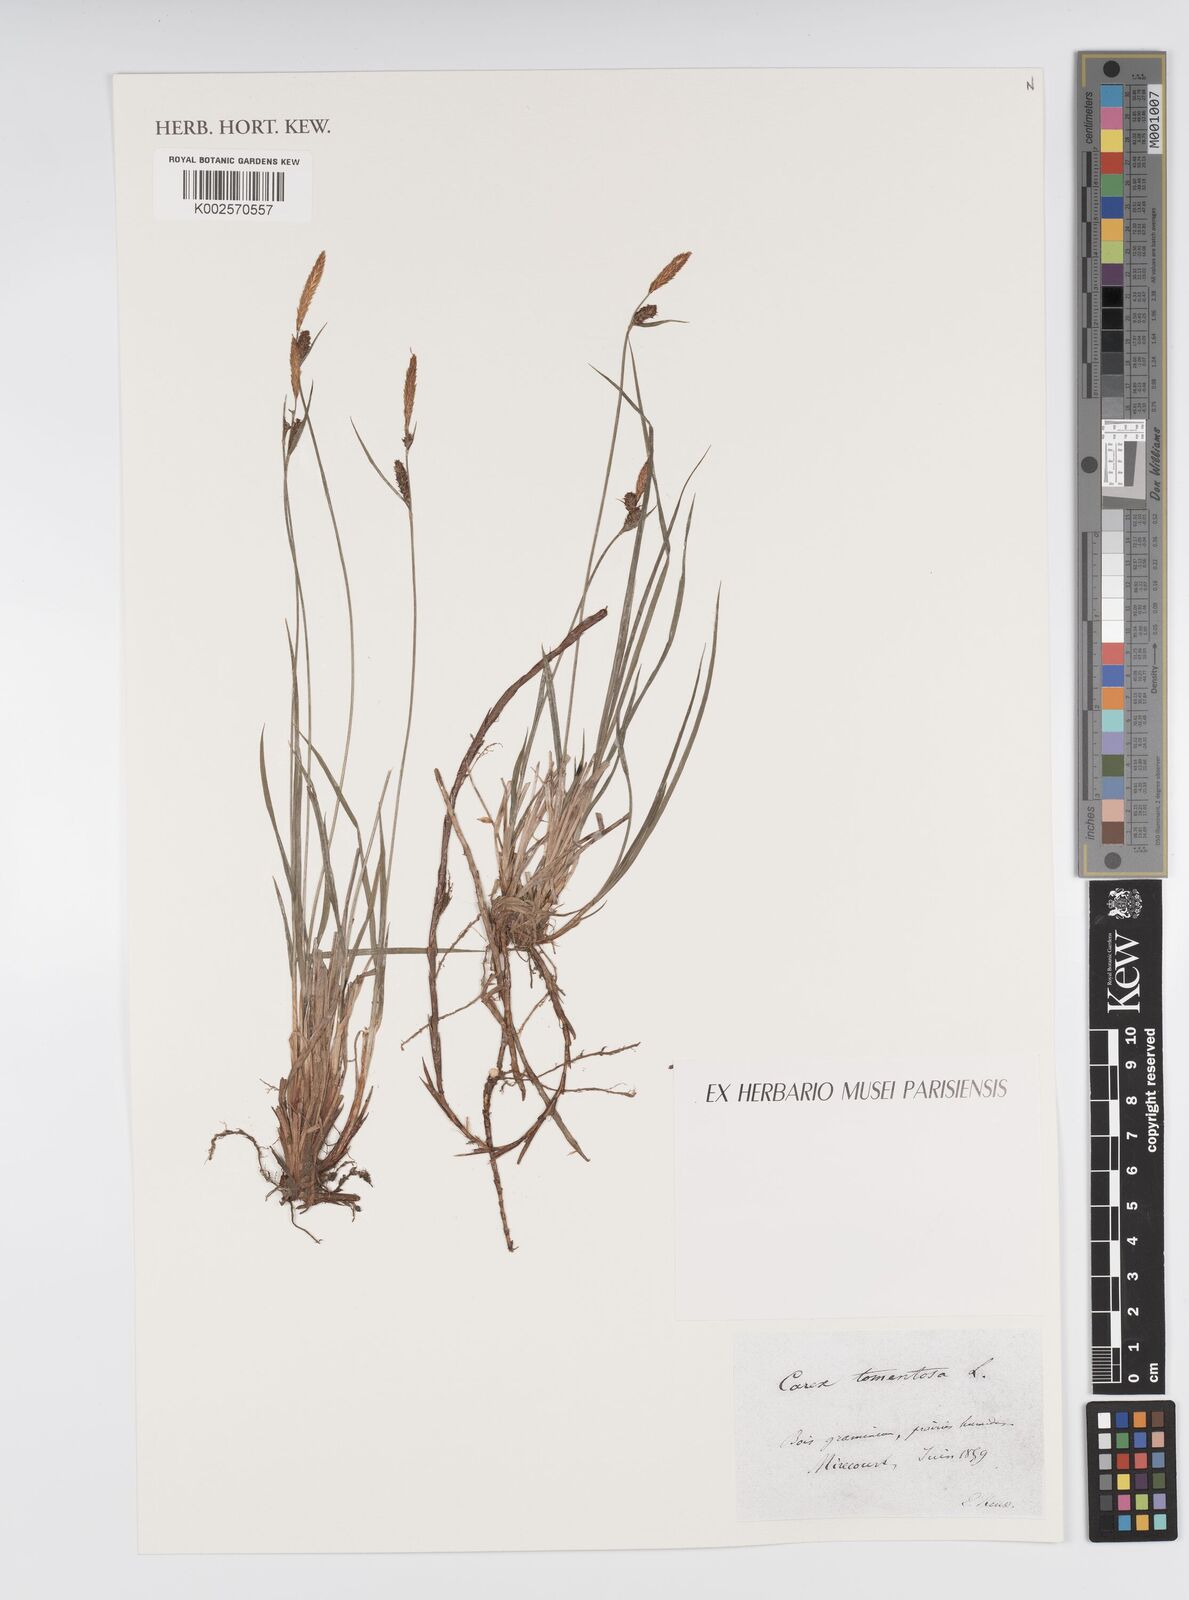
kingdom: Plantae
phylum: Tracheophyta
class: Liliopsida
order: Poales
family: Cyperaceae
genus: Carex
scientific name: Carex montana
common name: Soft-leaved sedge
